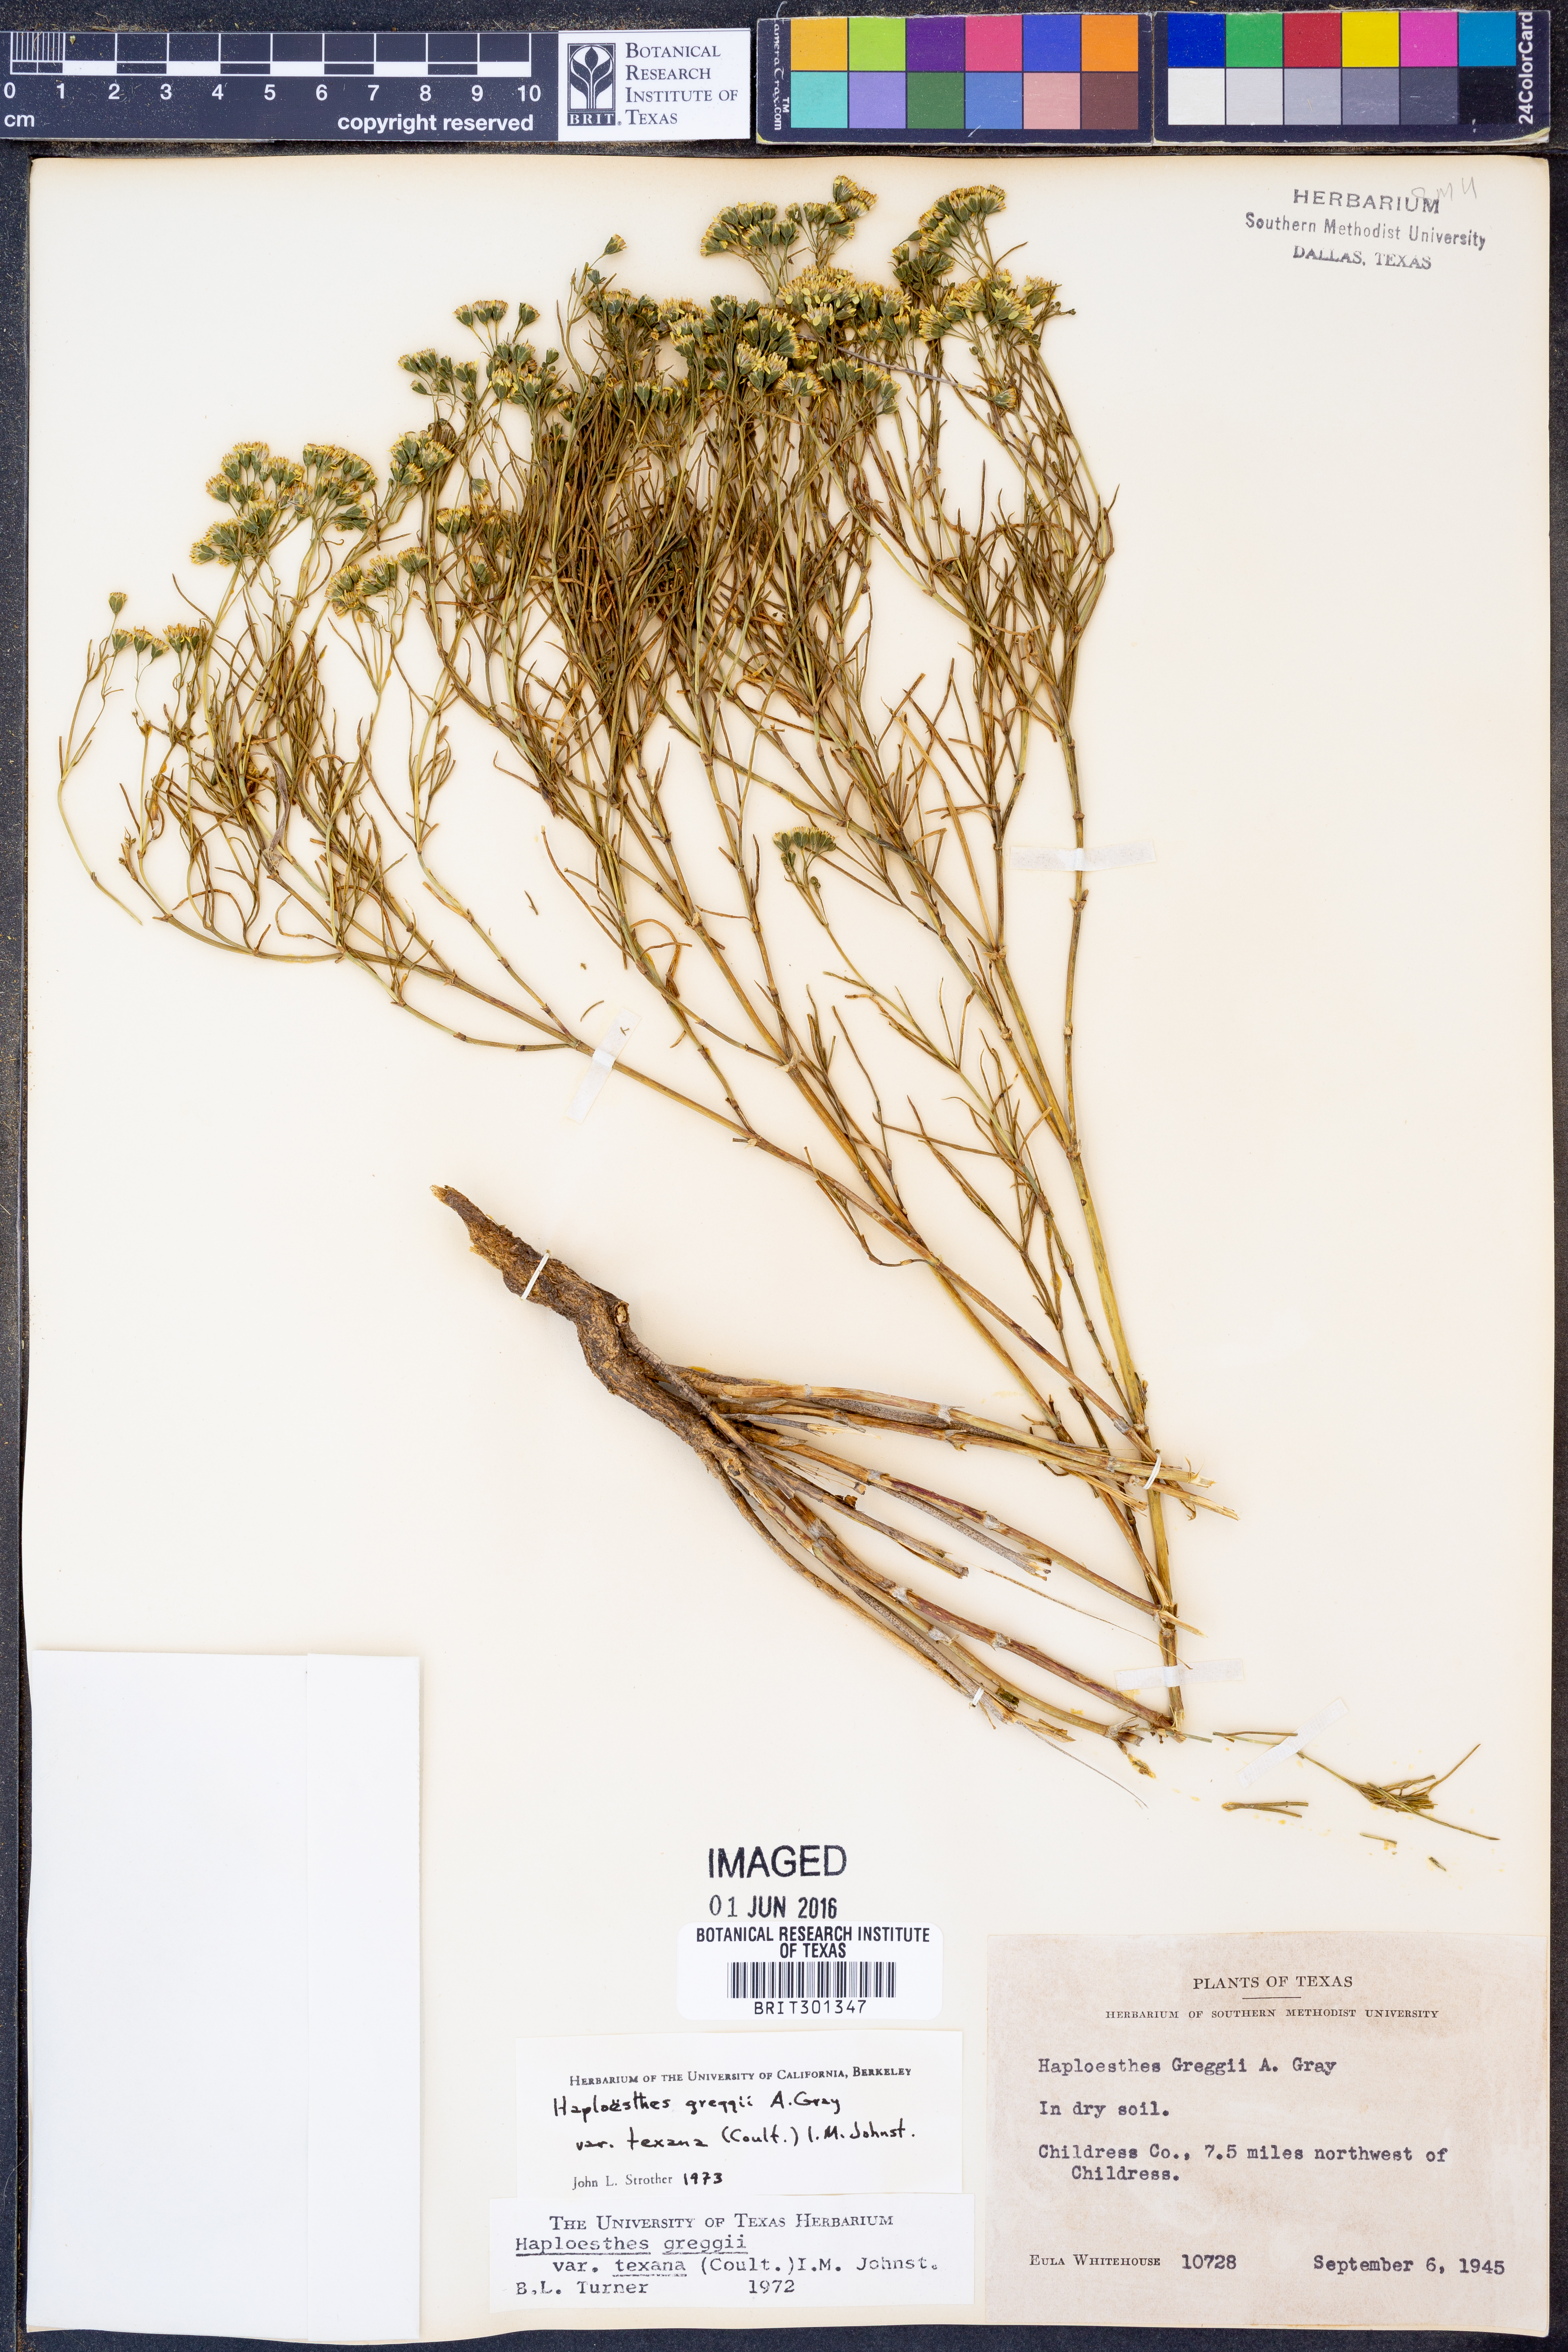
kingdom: Plantae
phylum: Tracheophyta
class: Magnoliopsida
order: Asterales
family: Asteraceae
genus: Haploesthes
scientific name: Haploesthes greggii
